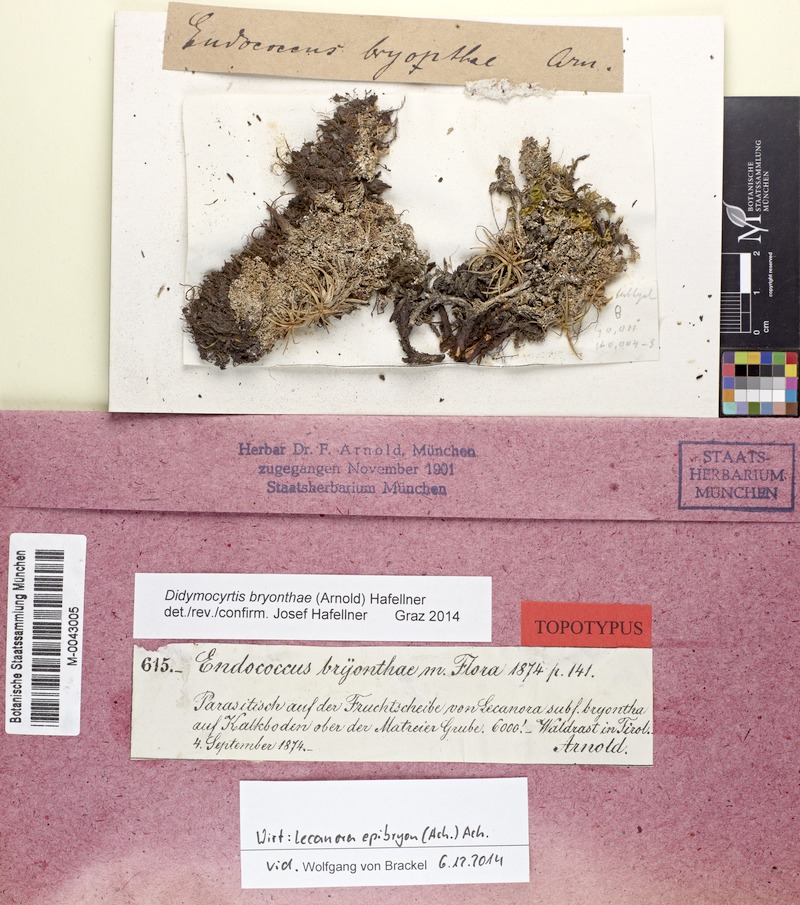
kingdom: Fungi
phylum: Ascomycota
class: Dothideomycetes
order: Pleosporales
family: Phaeosphaeriaceae
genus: Didymocyrtis
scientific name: Didymocyrtis bryonthae
